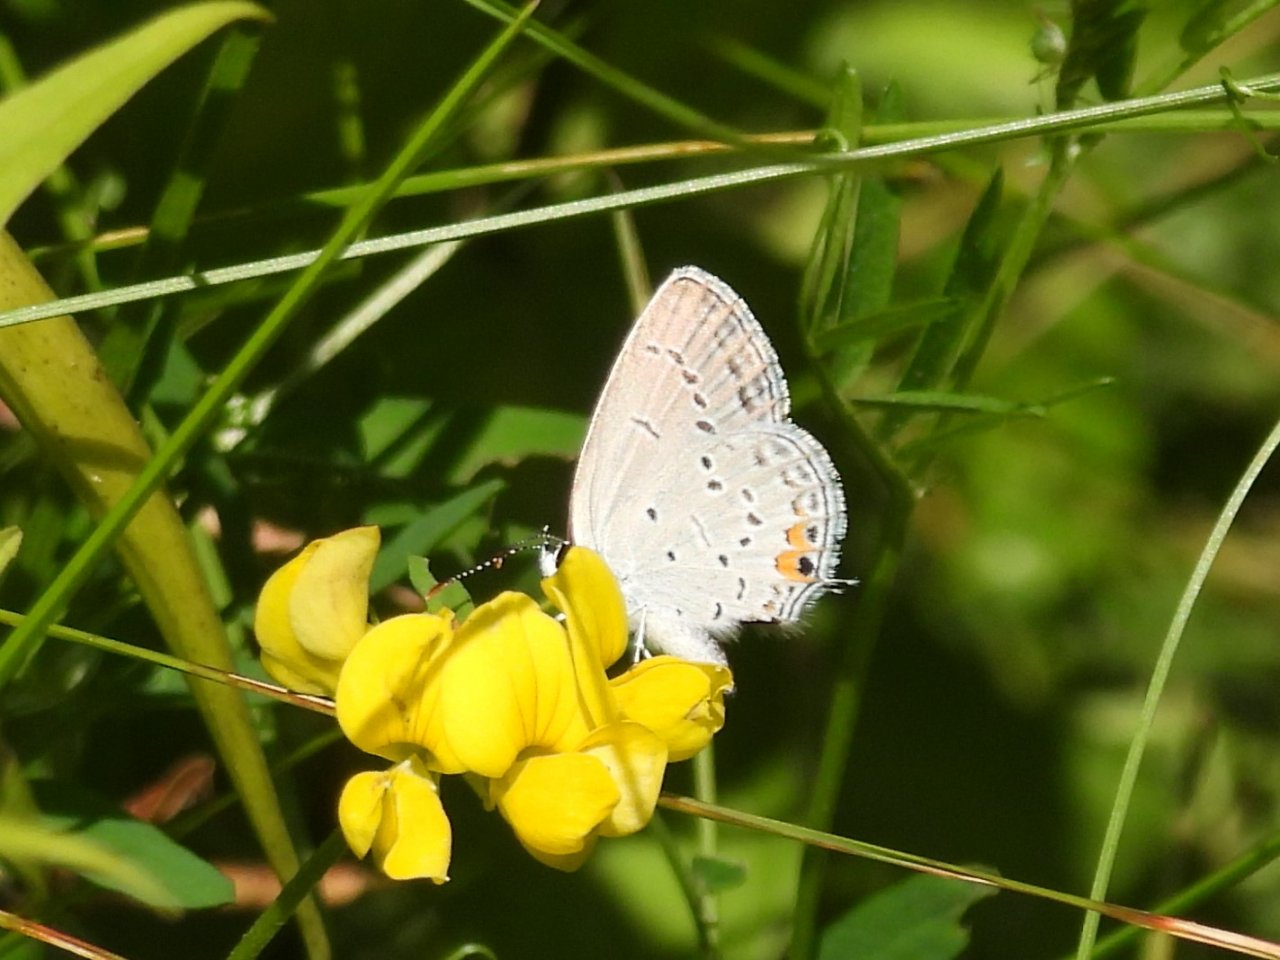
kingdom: Animalia
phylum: Arthropoda
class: Insecta
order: Lepidoptera
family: Lycaenidae
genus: Elkalyce
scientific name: Elkalyce comyntas
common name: Eastern Tailed-Blue
